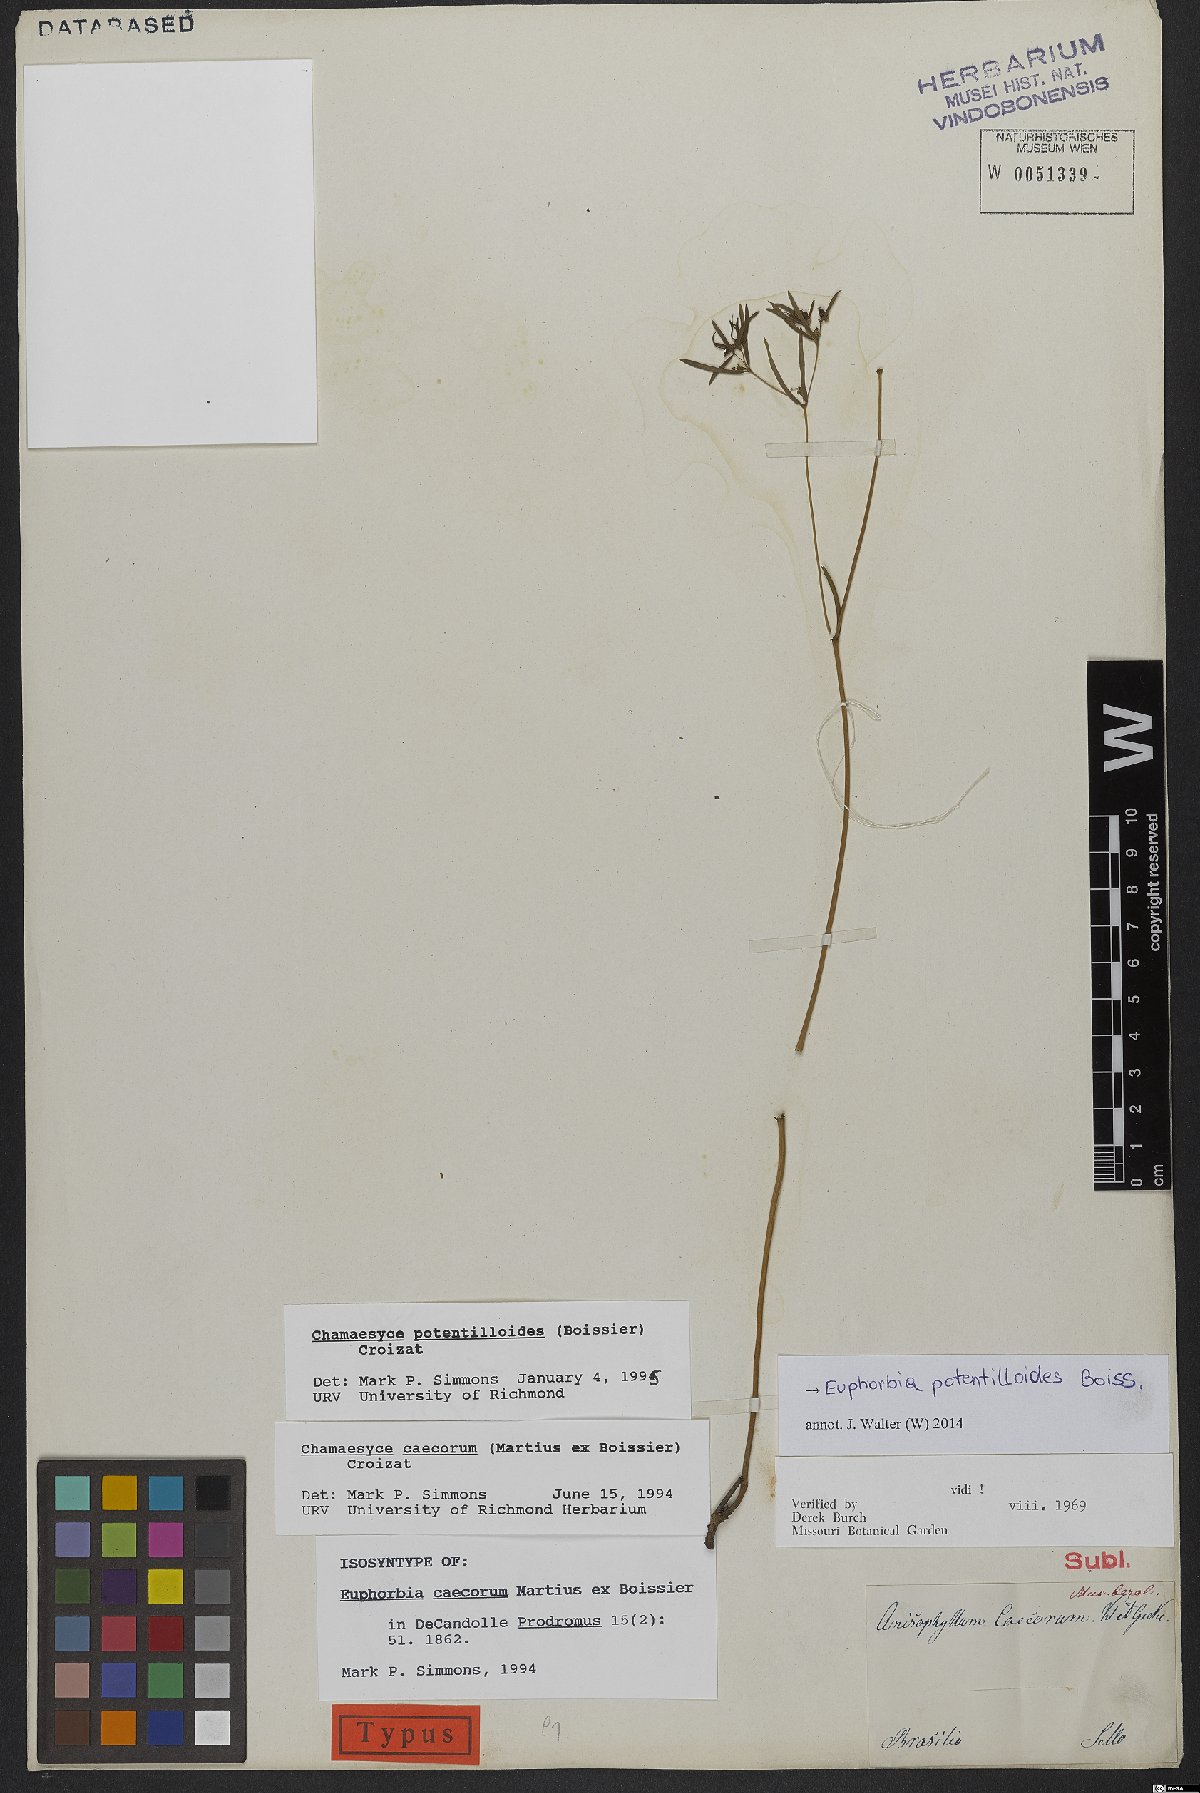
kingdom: Plantae
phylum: Tracheophyta
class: Magnoliopsida
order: Malpighiales
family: Euphorbiaceae
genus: Euphorbia
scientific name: Euphorbia potentilloides
